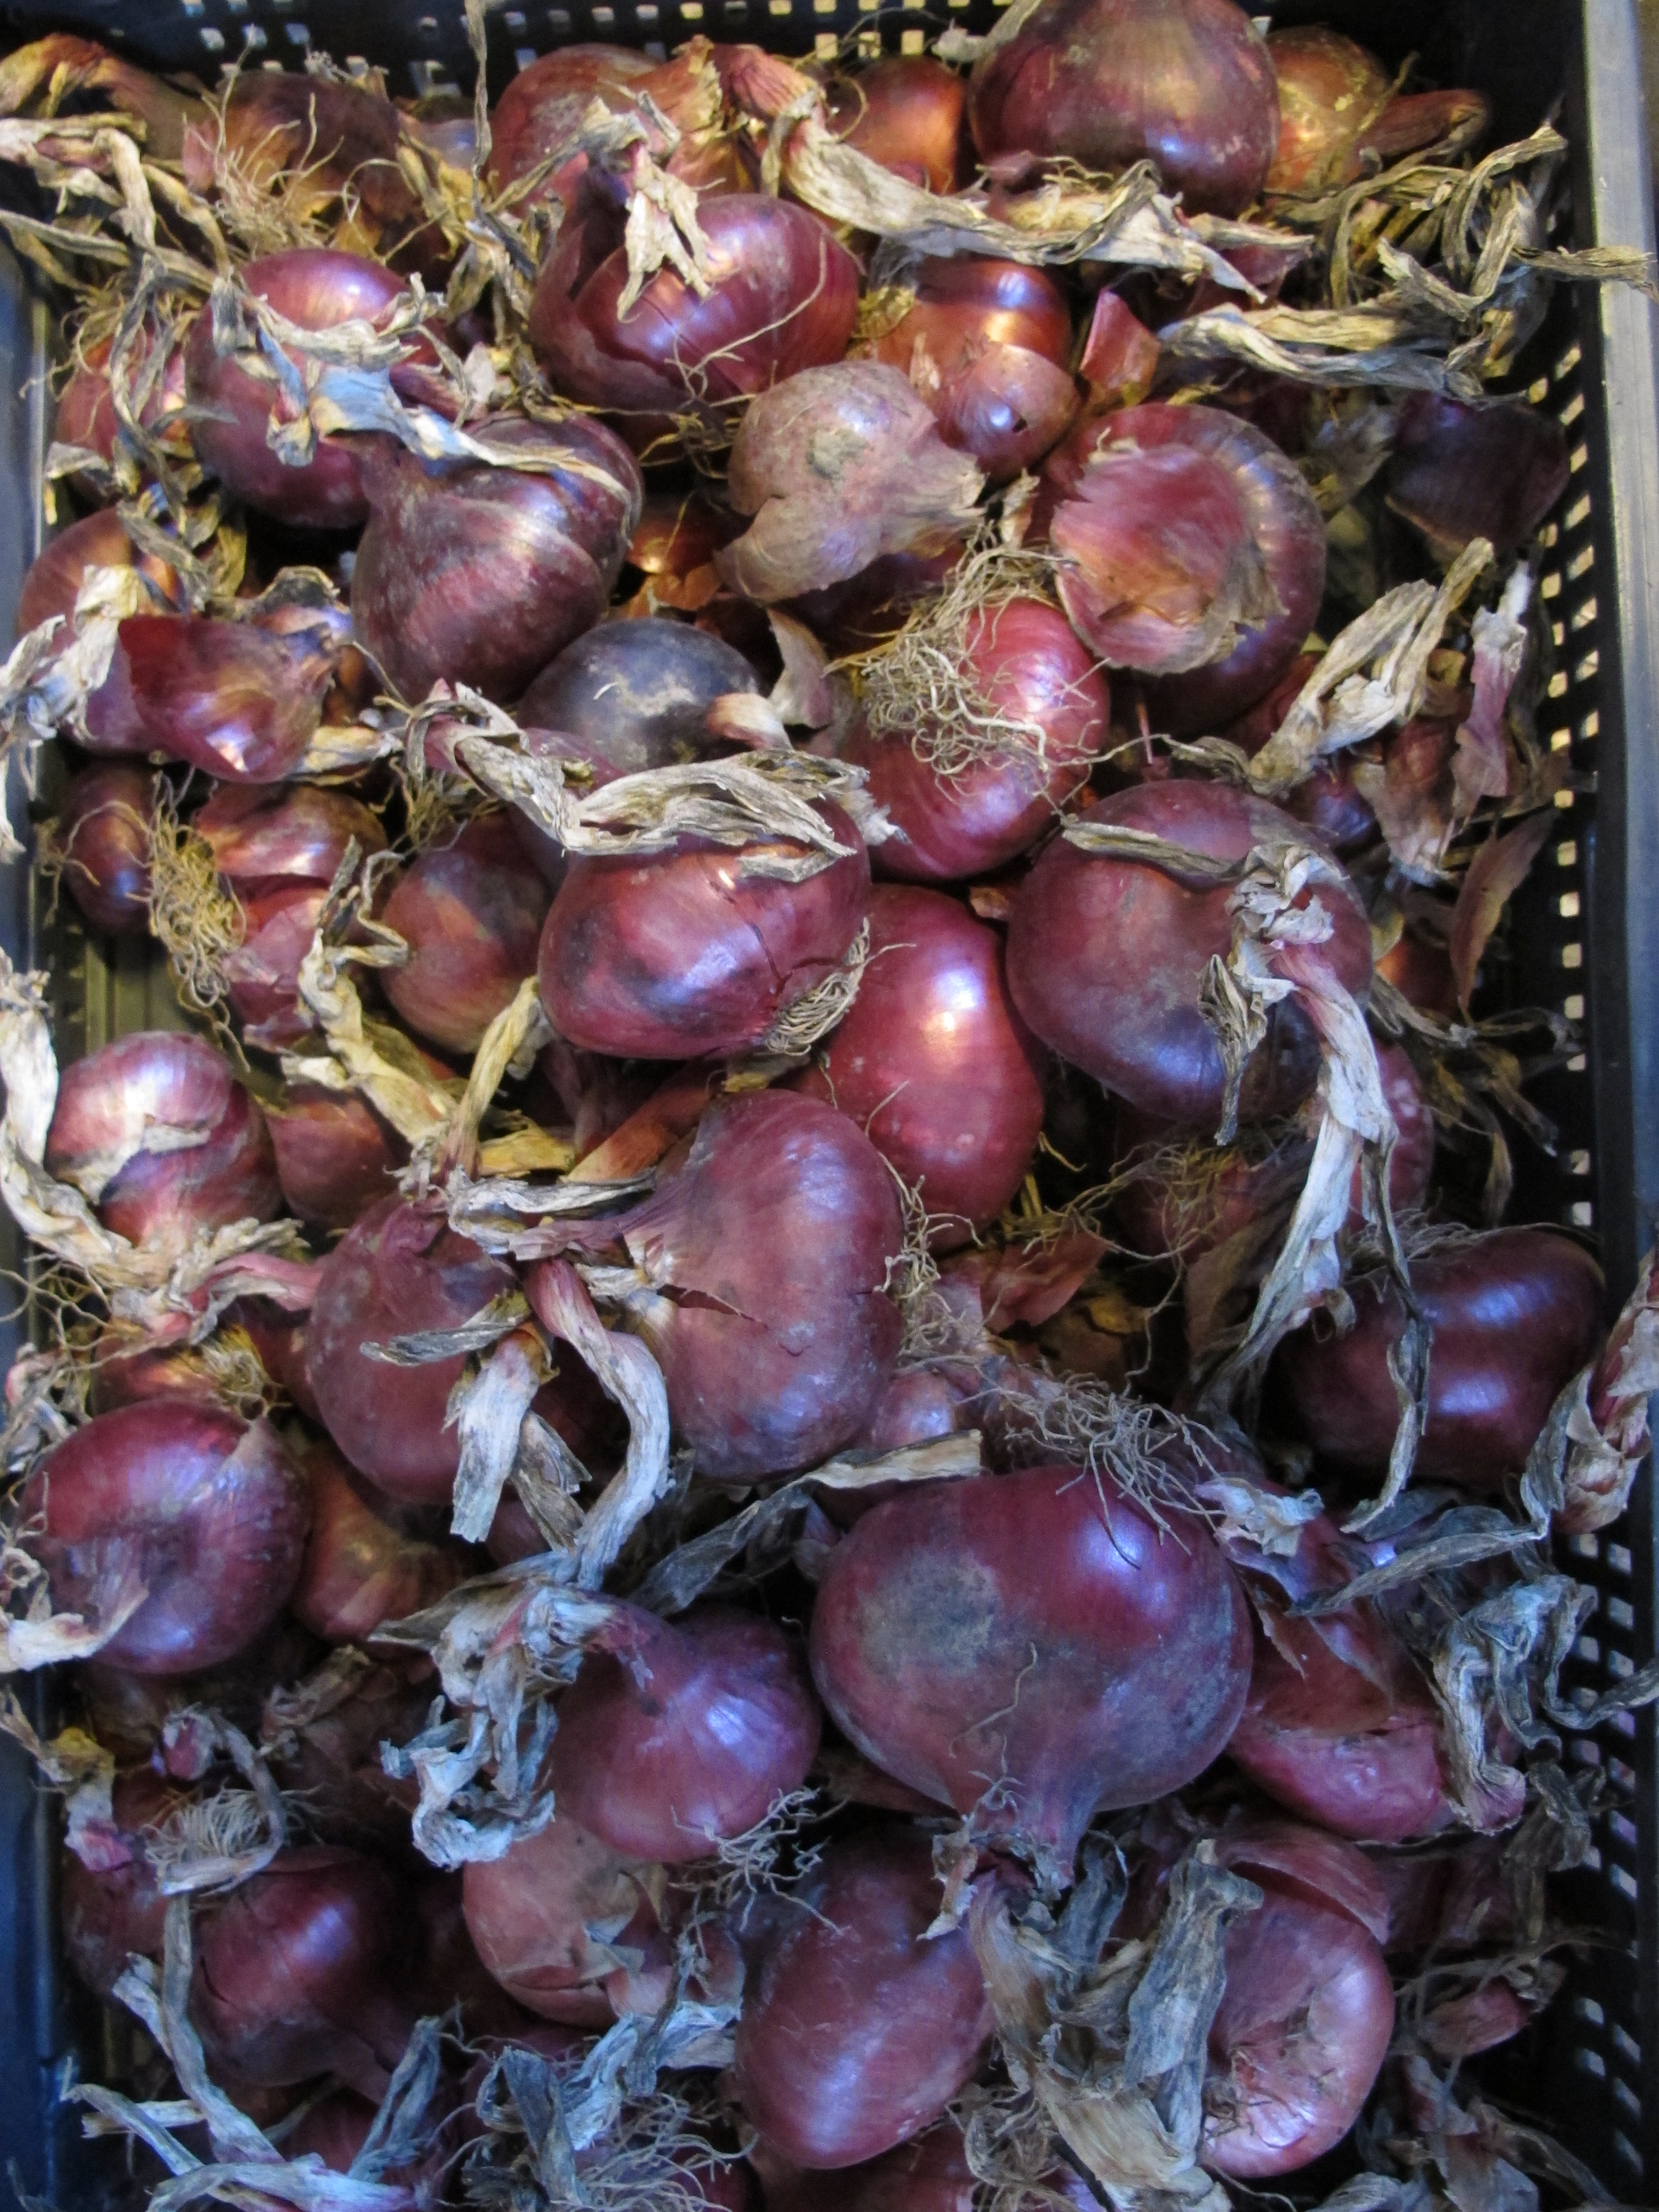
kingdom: Plantae
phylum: Tracheophyta
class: Liliopsida
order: Asparagales
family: Amaryllidaceae
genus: Allium
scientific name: Allium cepa
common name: Onion
